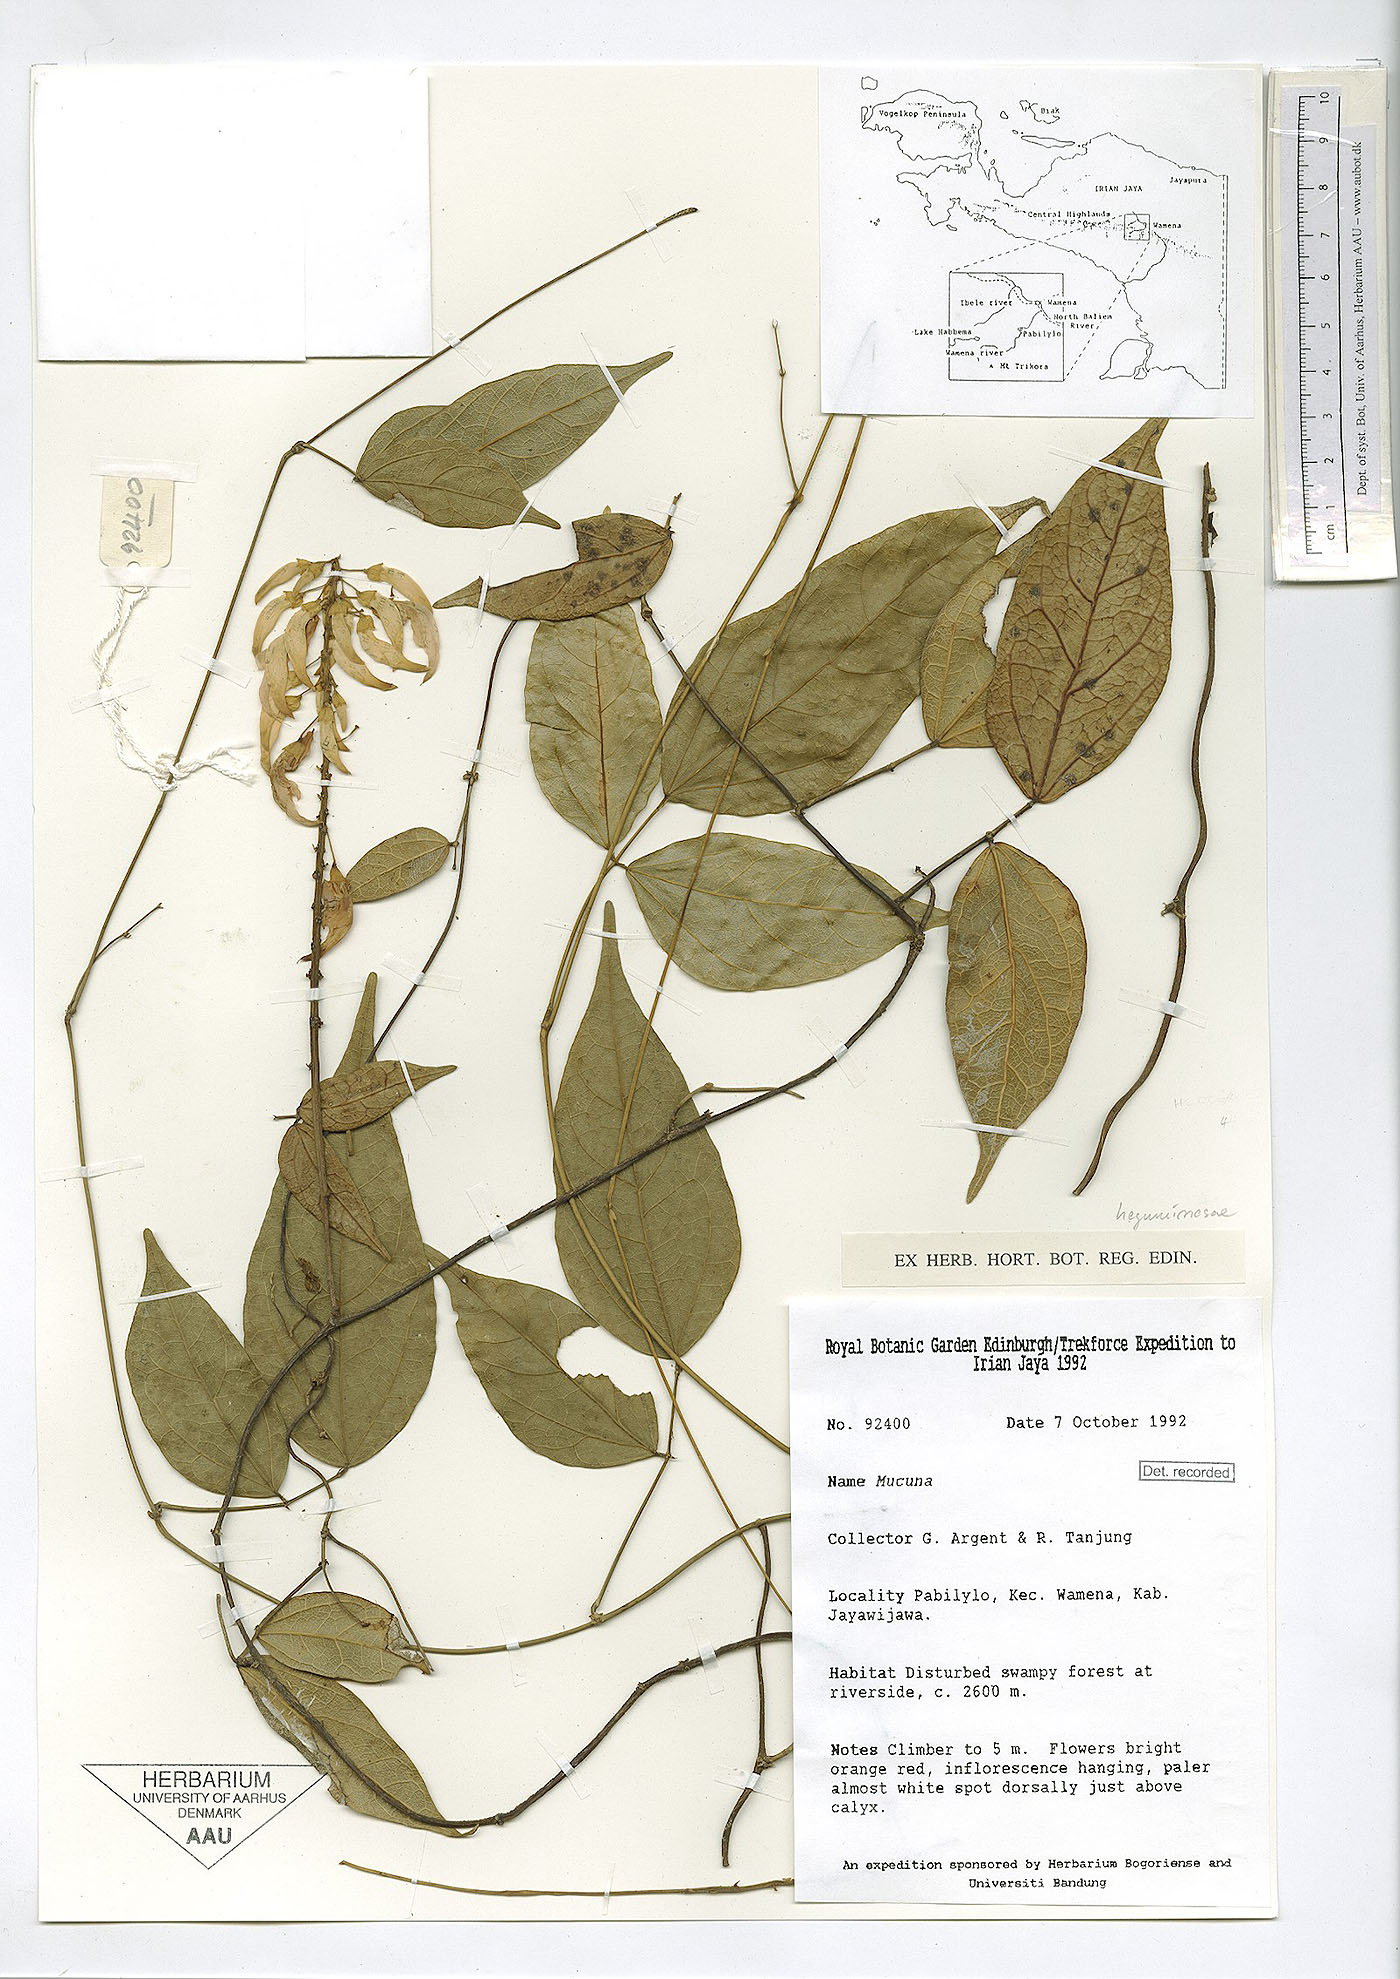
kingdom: Plantae
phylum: Tracheophyta
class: Magnoliopsida
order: Fabales
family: Fabaceae
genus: Strongylodon
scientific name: Strongylodon lucidus
